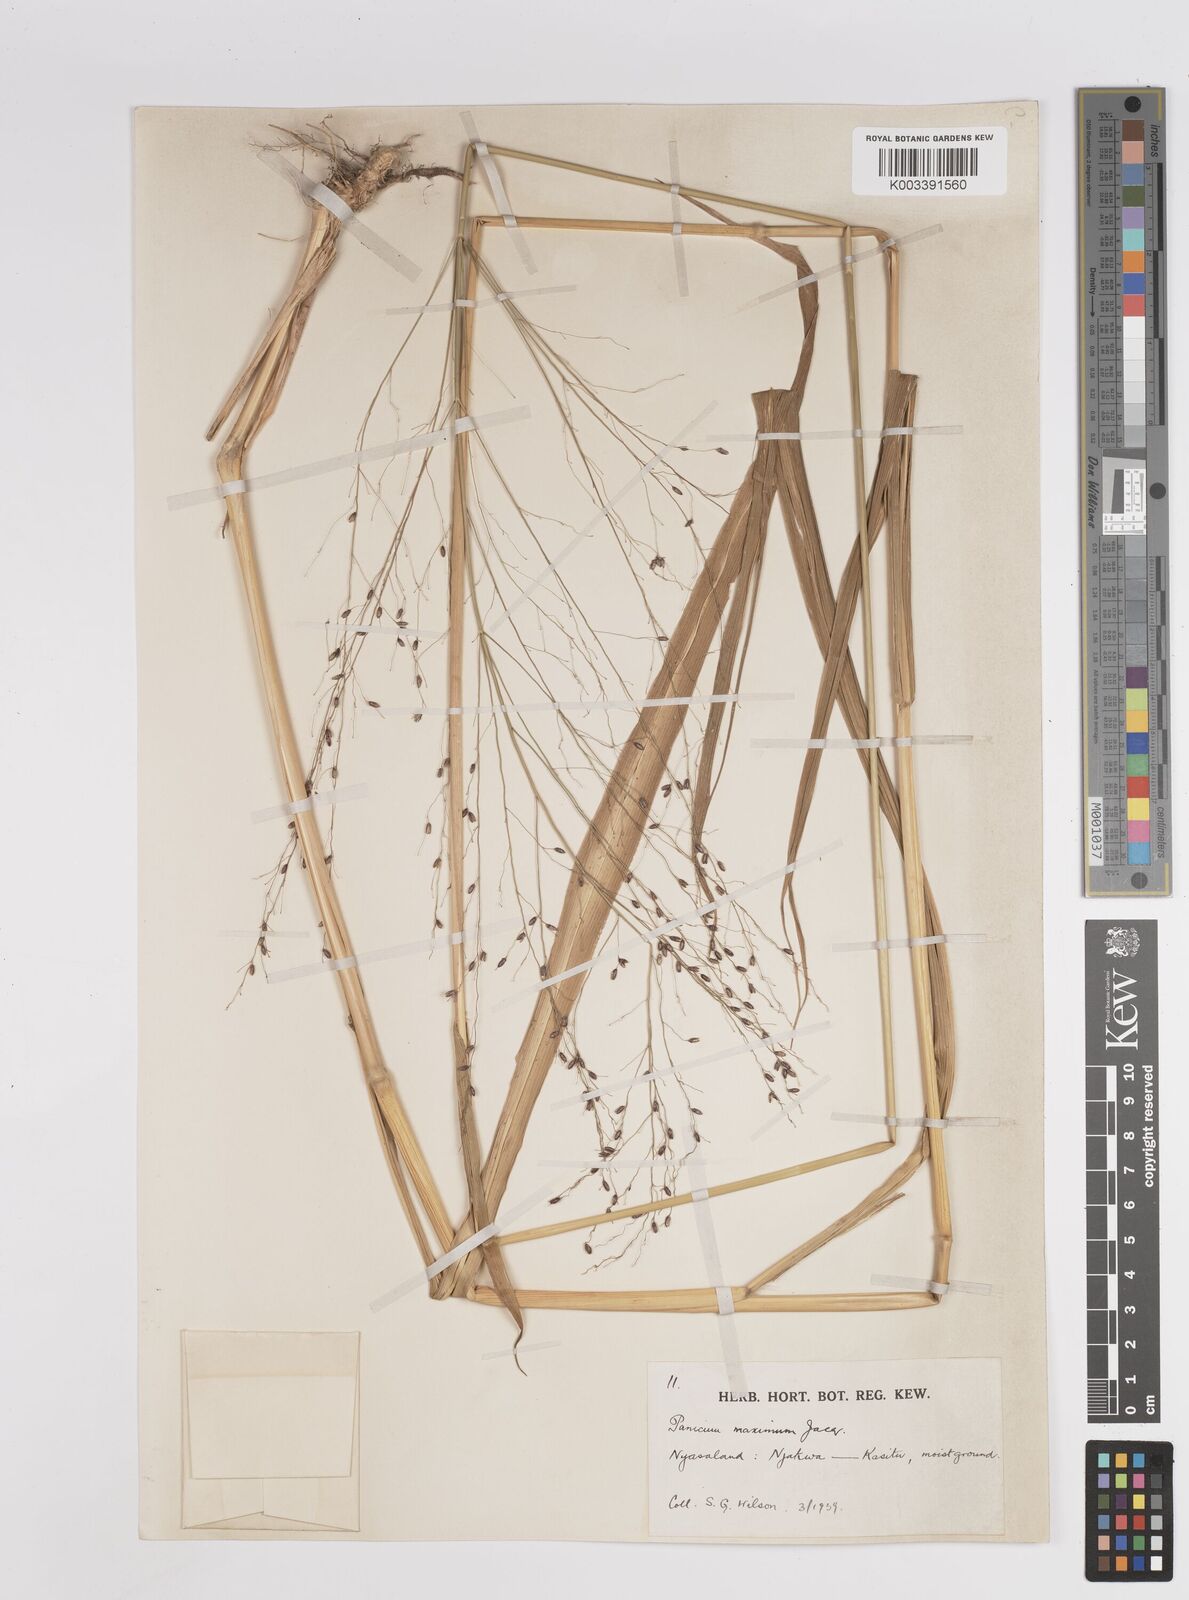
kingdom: Plantae
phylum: Tracheophyta
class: Liliopsida
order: Poales
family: Poaceae
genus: Megathyrsus
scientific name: Megathyrsus maximus
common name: Guineagrass
